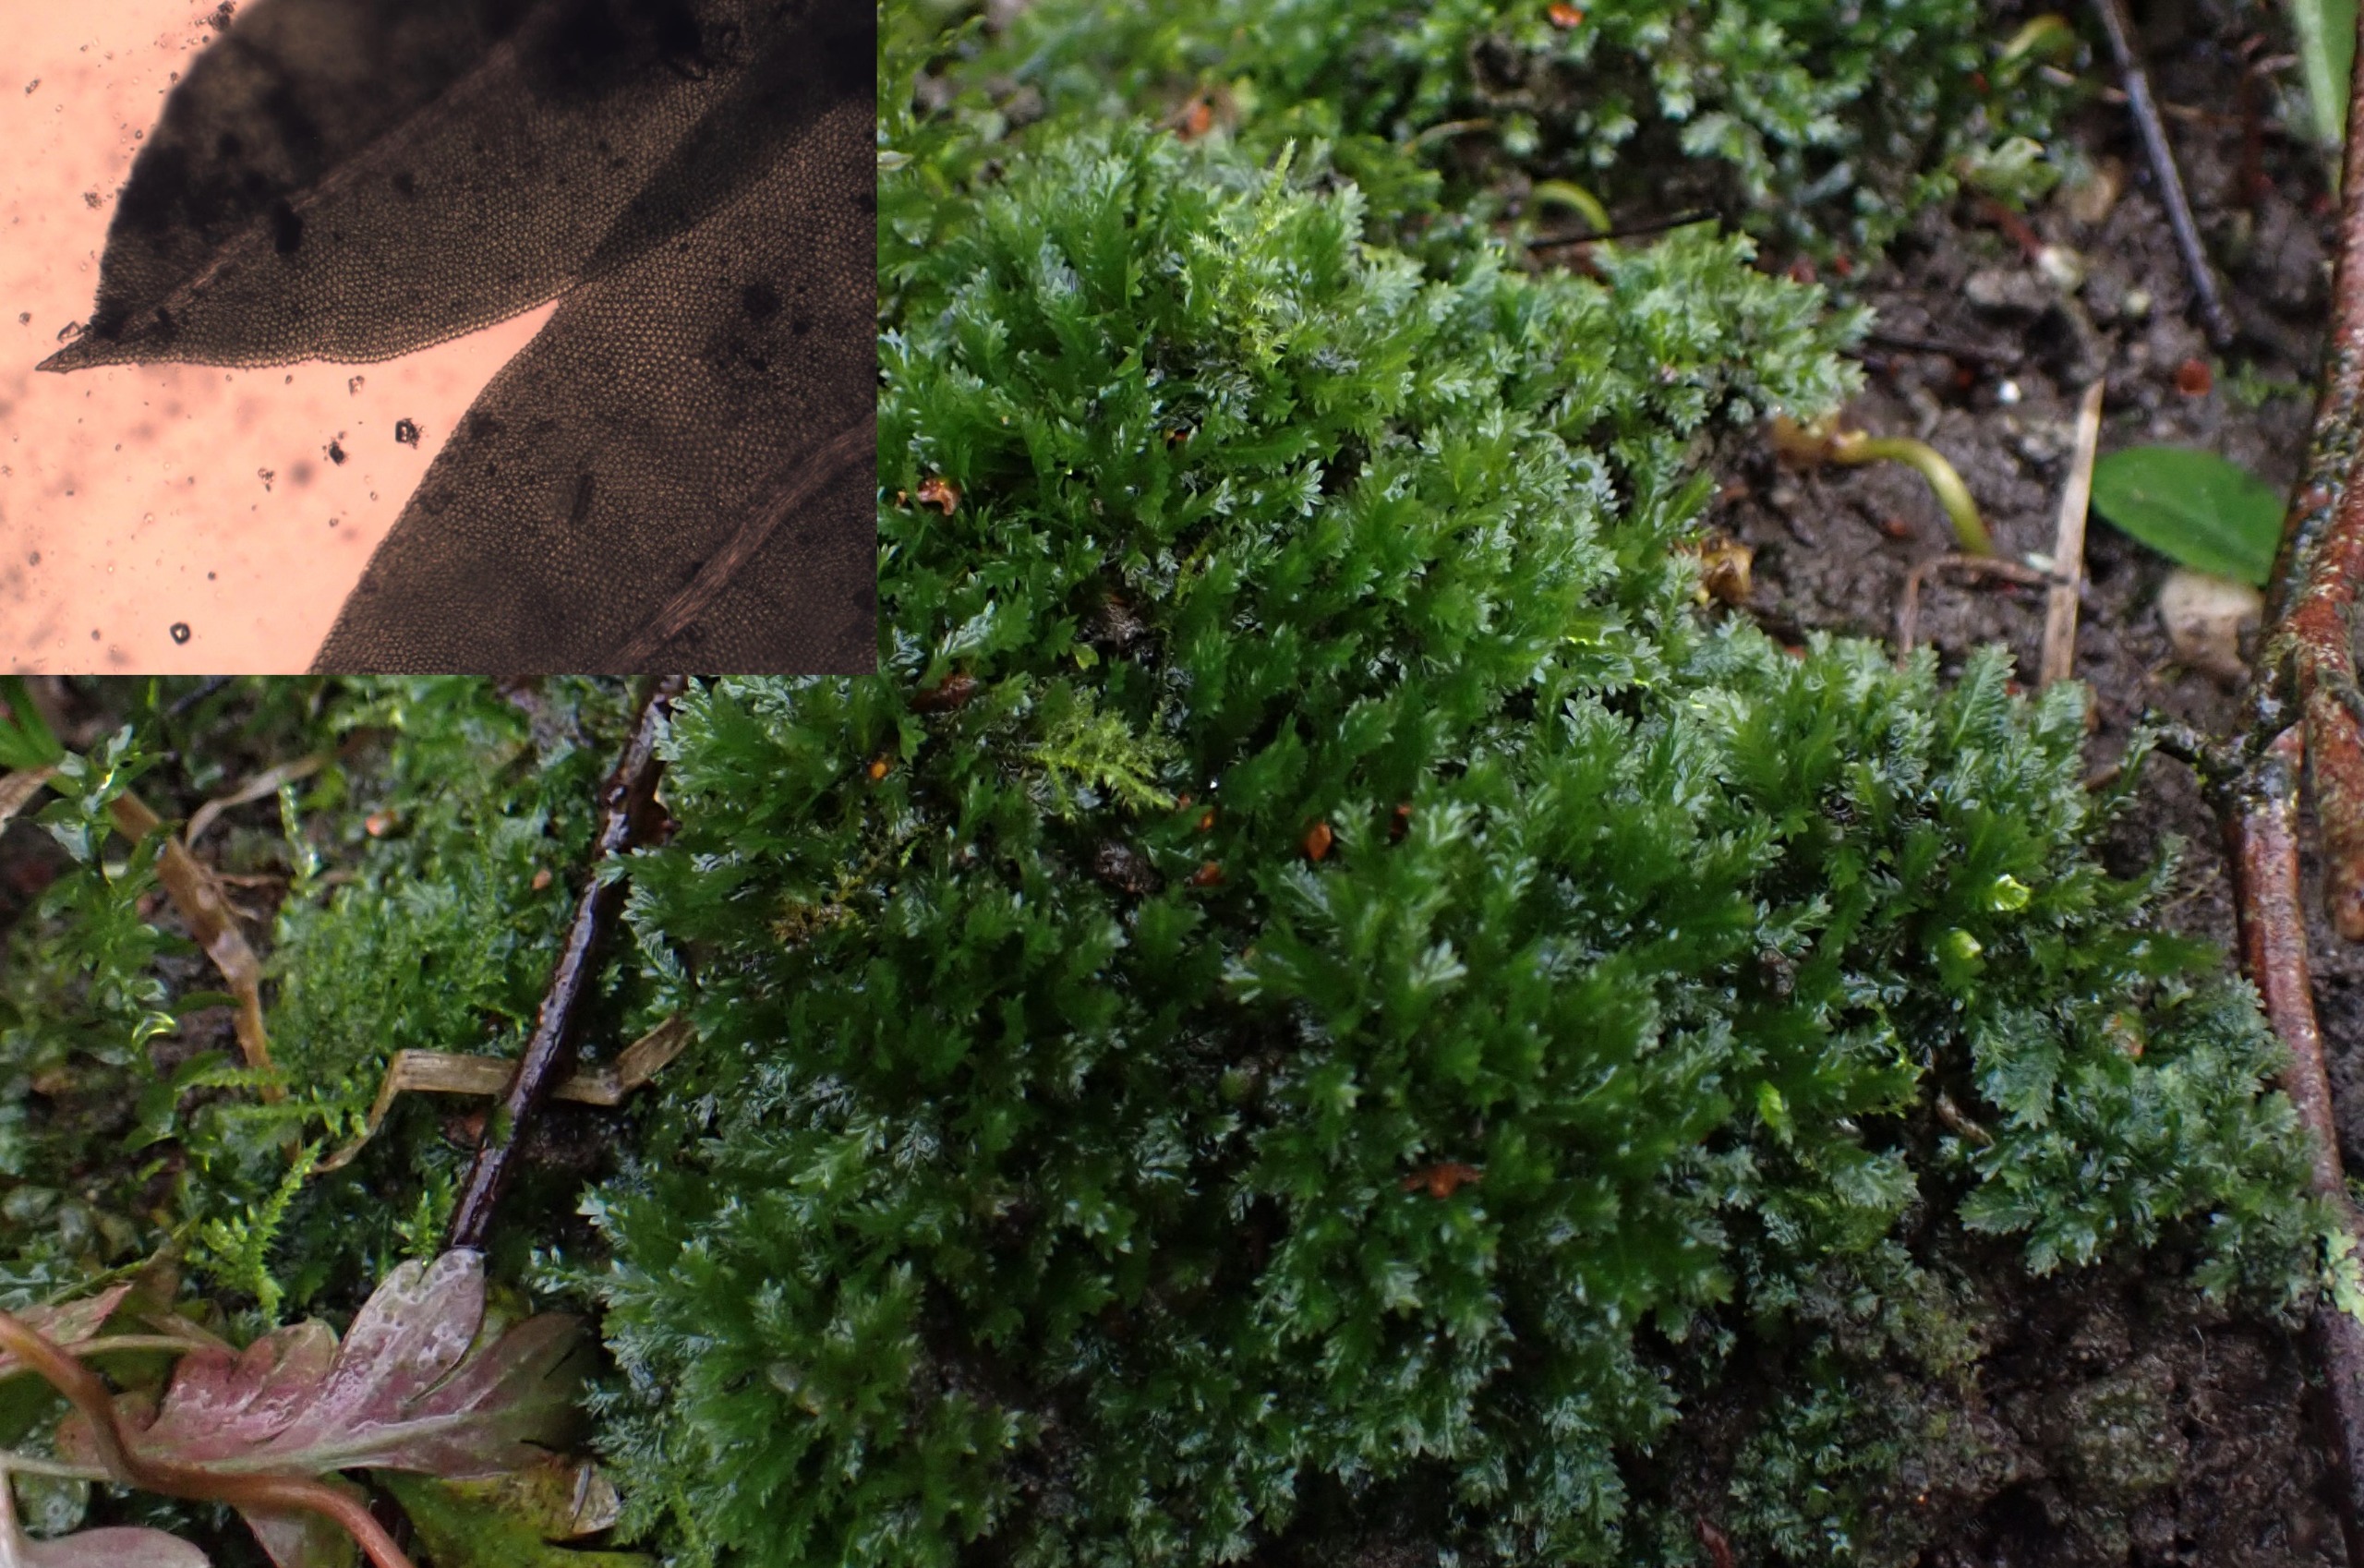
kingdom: Plantae
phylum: Bryophyta
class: Bryopsida
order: Dicranales
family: Fissidentaceae
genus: Fissidens
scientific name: Fissidens taxifolius
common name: Taksbladet rademos
